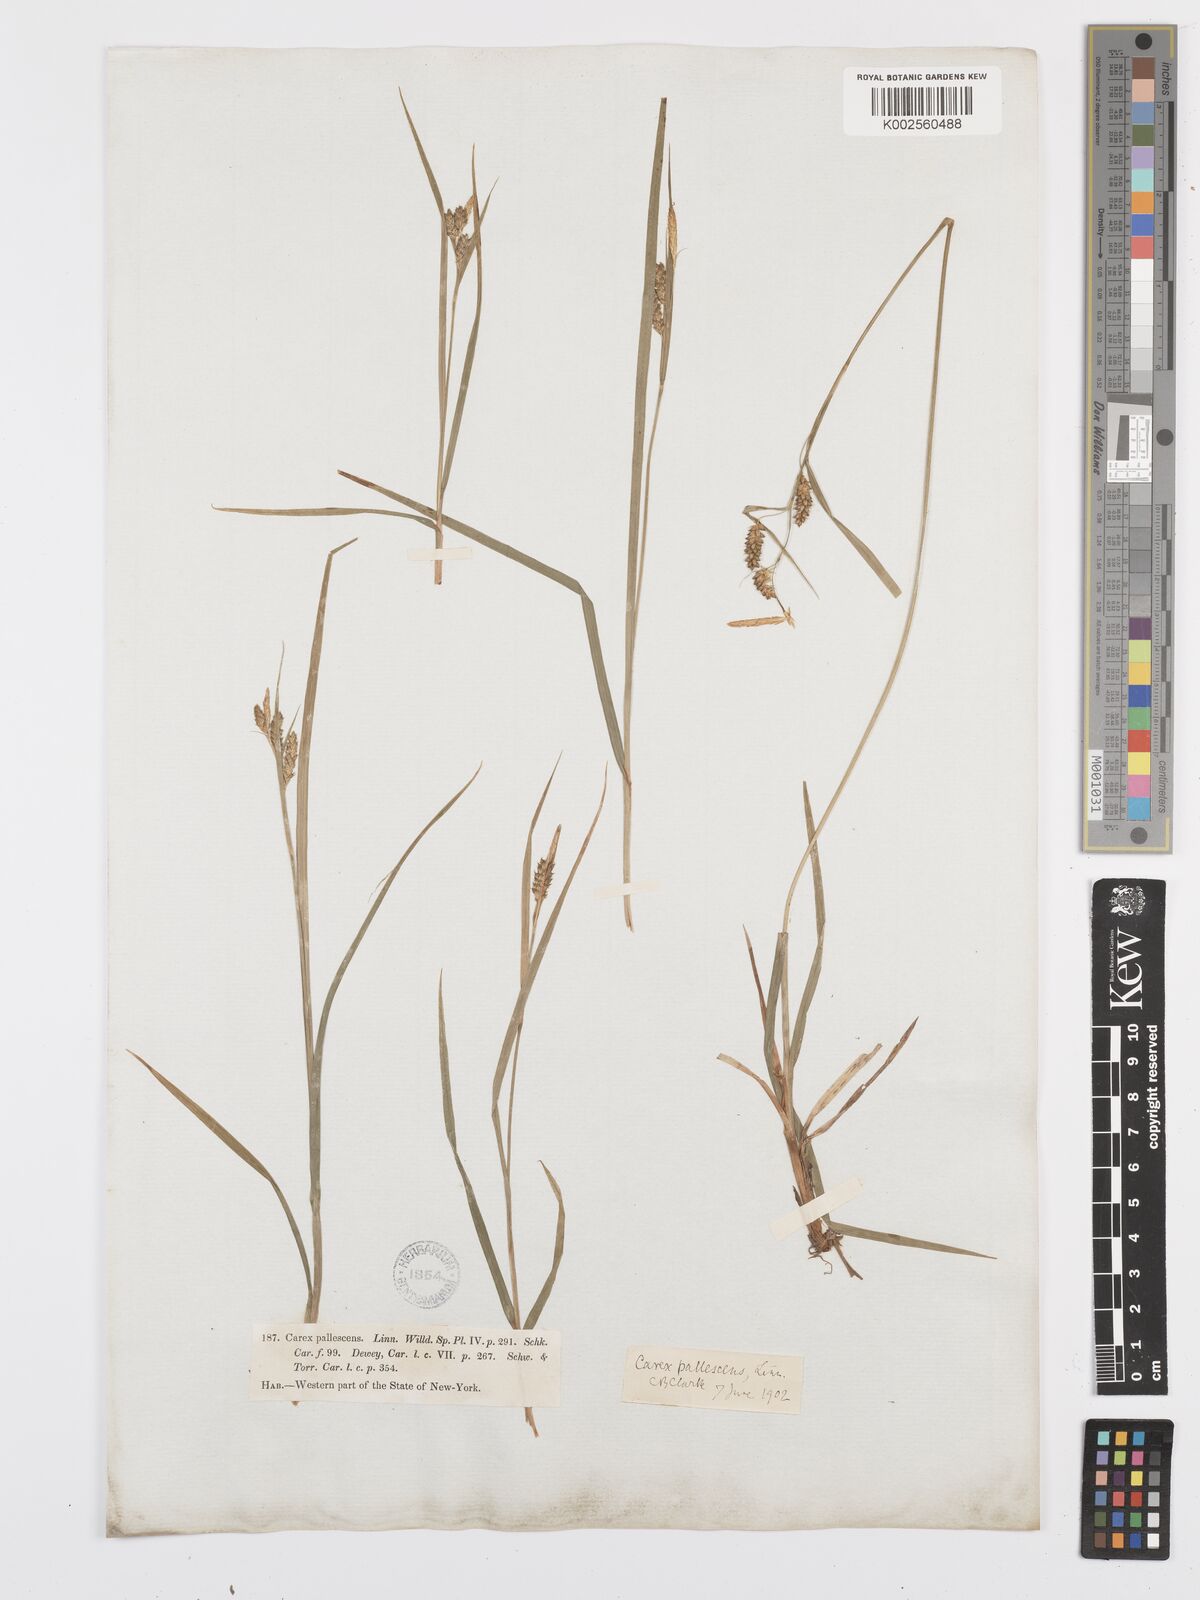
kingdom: Plantae
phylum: Tracheophyta
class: Liliopsida
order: Poales
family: Cyperaceae
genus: Carex
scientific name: Carex pallescens
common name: Pale sedge
